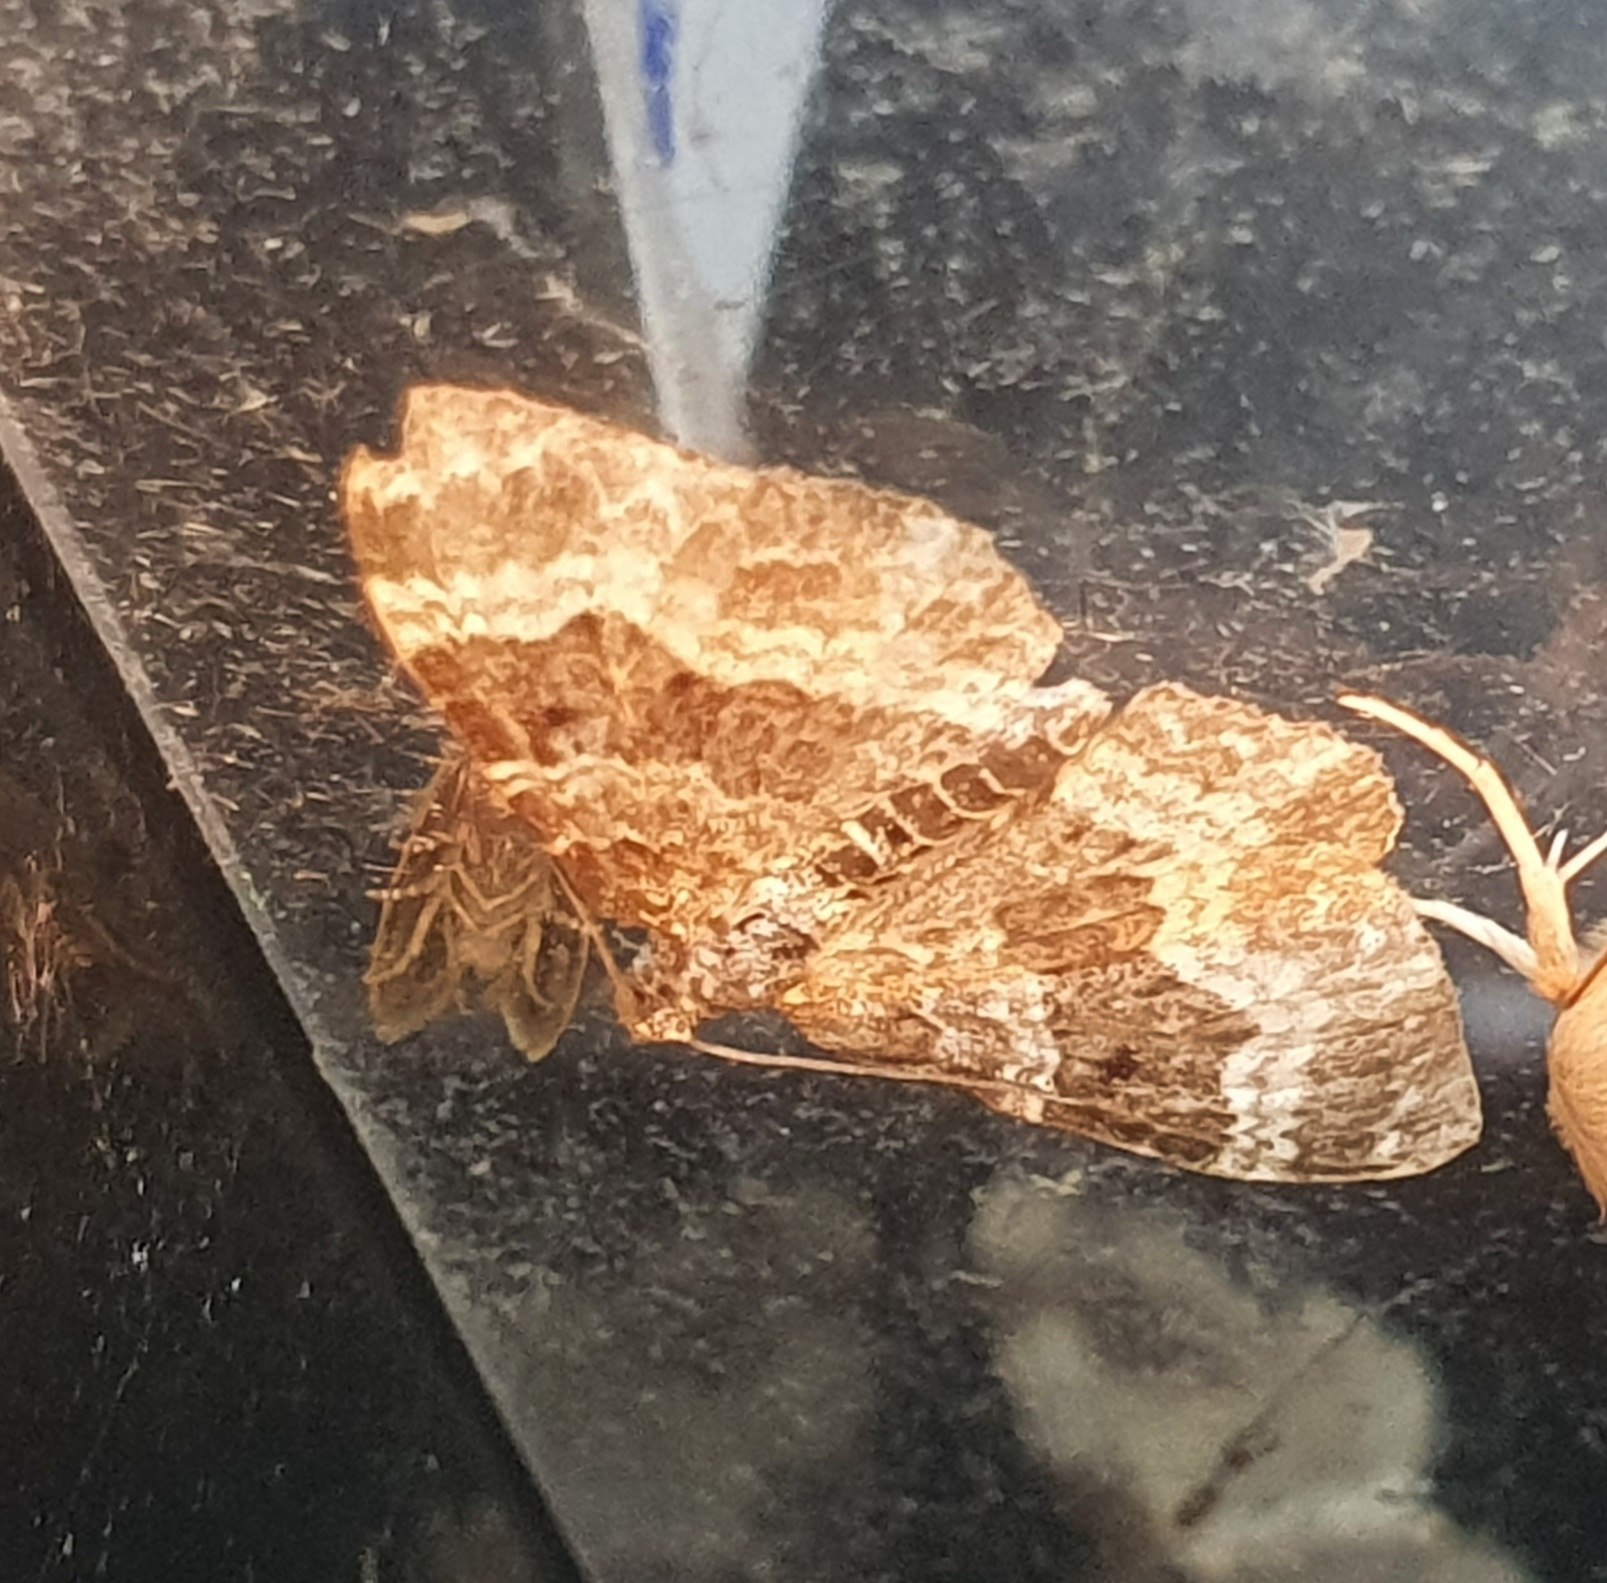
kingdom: Animalia
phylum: Arthropoda
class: Insecta
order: Lepidoptera
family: Geometridae
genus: Epirrhoe
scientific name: Epirrhoe alternata
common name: Almindelig bladmåler
